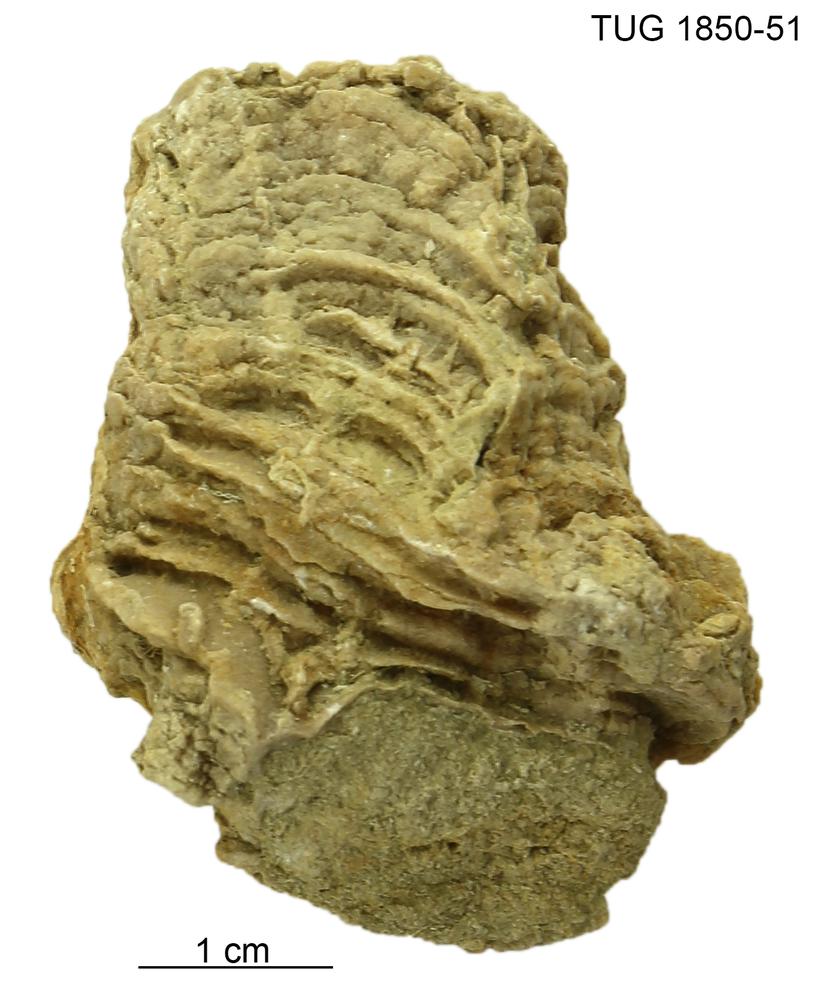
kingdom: Animalia
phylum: Porifera
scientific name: Porifera
